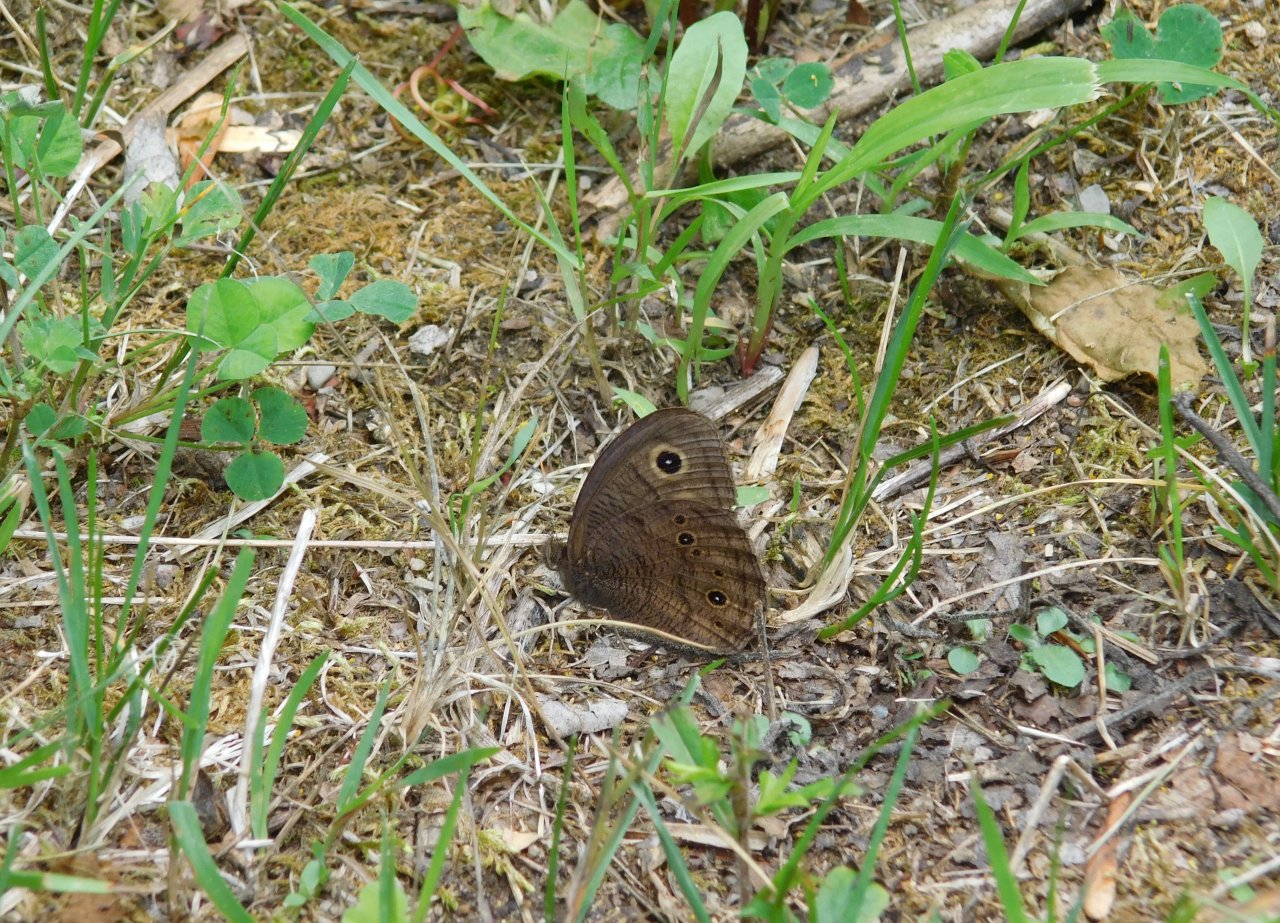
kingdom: Animalia
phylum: Arthropoda
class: Insecta
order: Lepidoptera
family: Nymphalidae
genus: Cercyonis
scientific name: Cercyonis pegala
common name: Common Wood-Nymph
